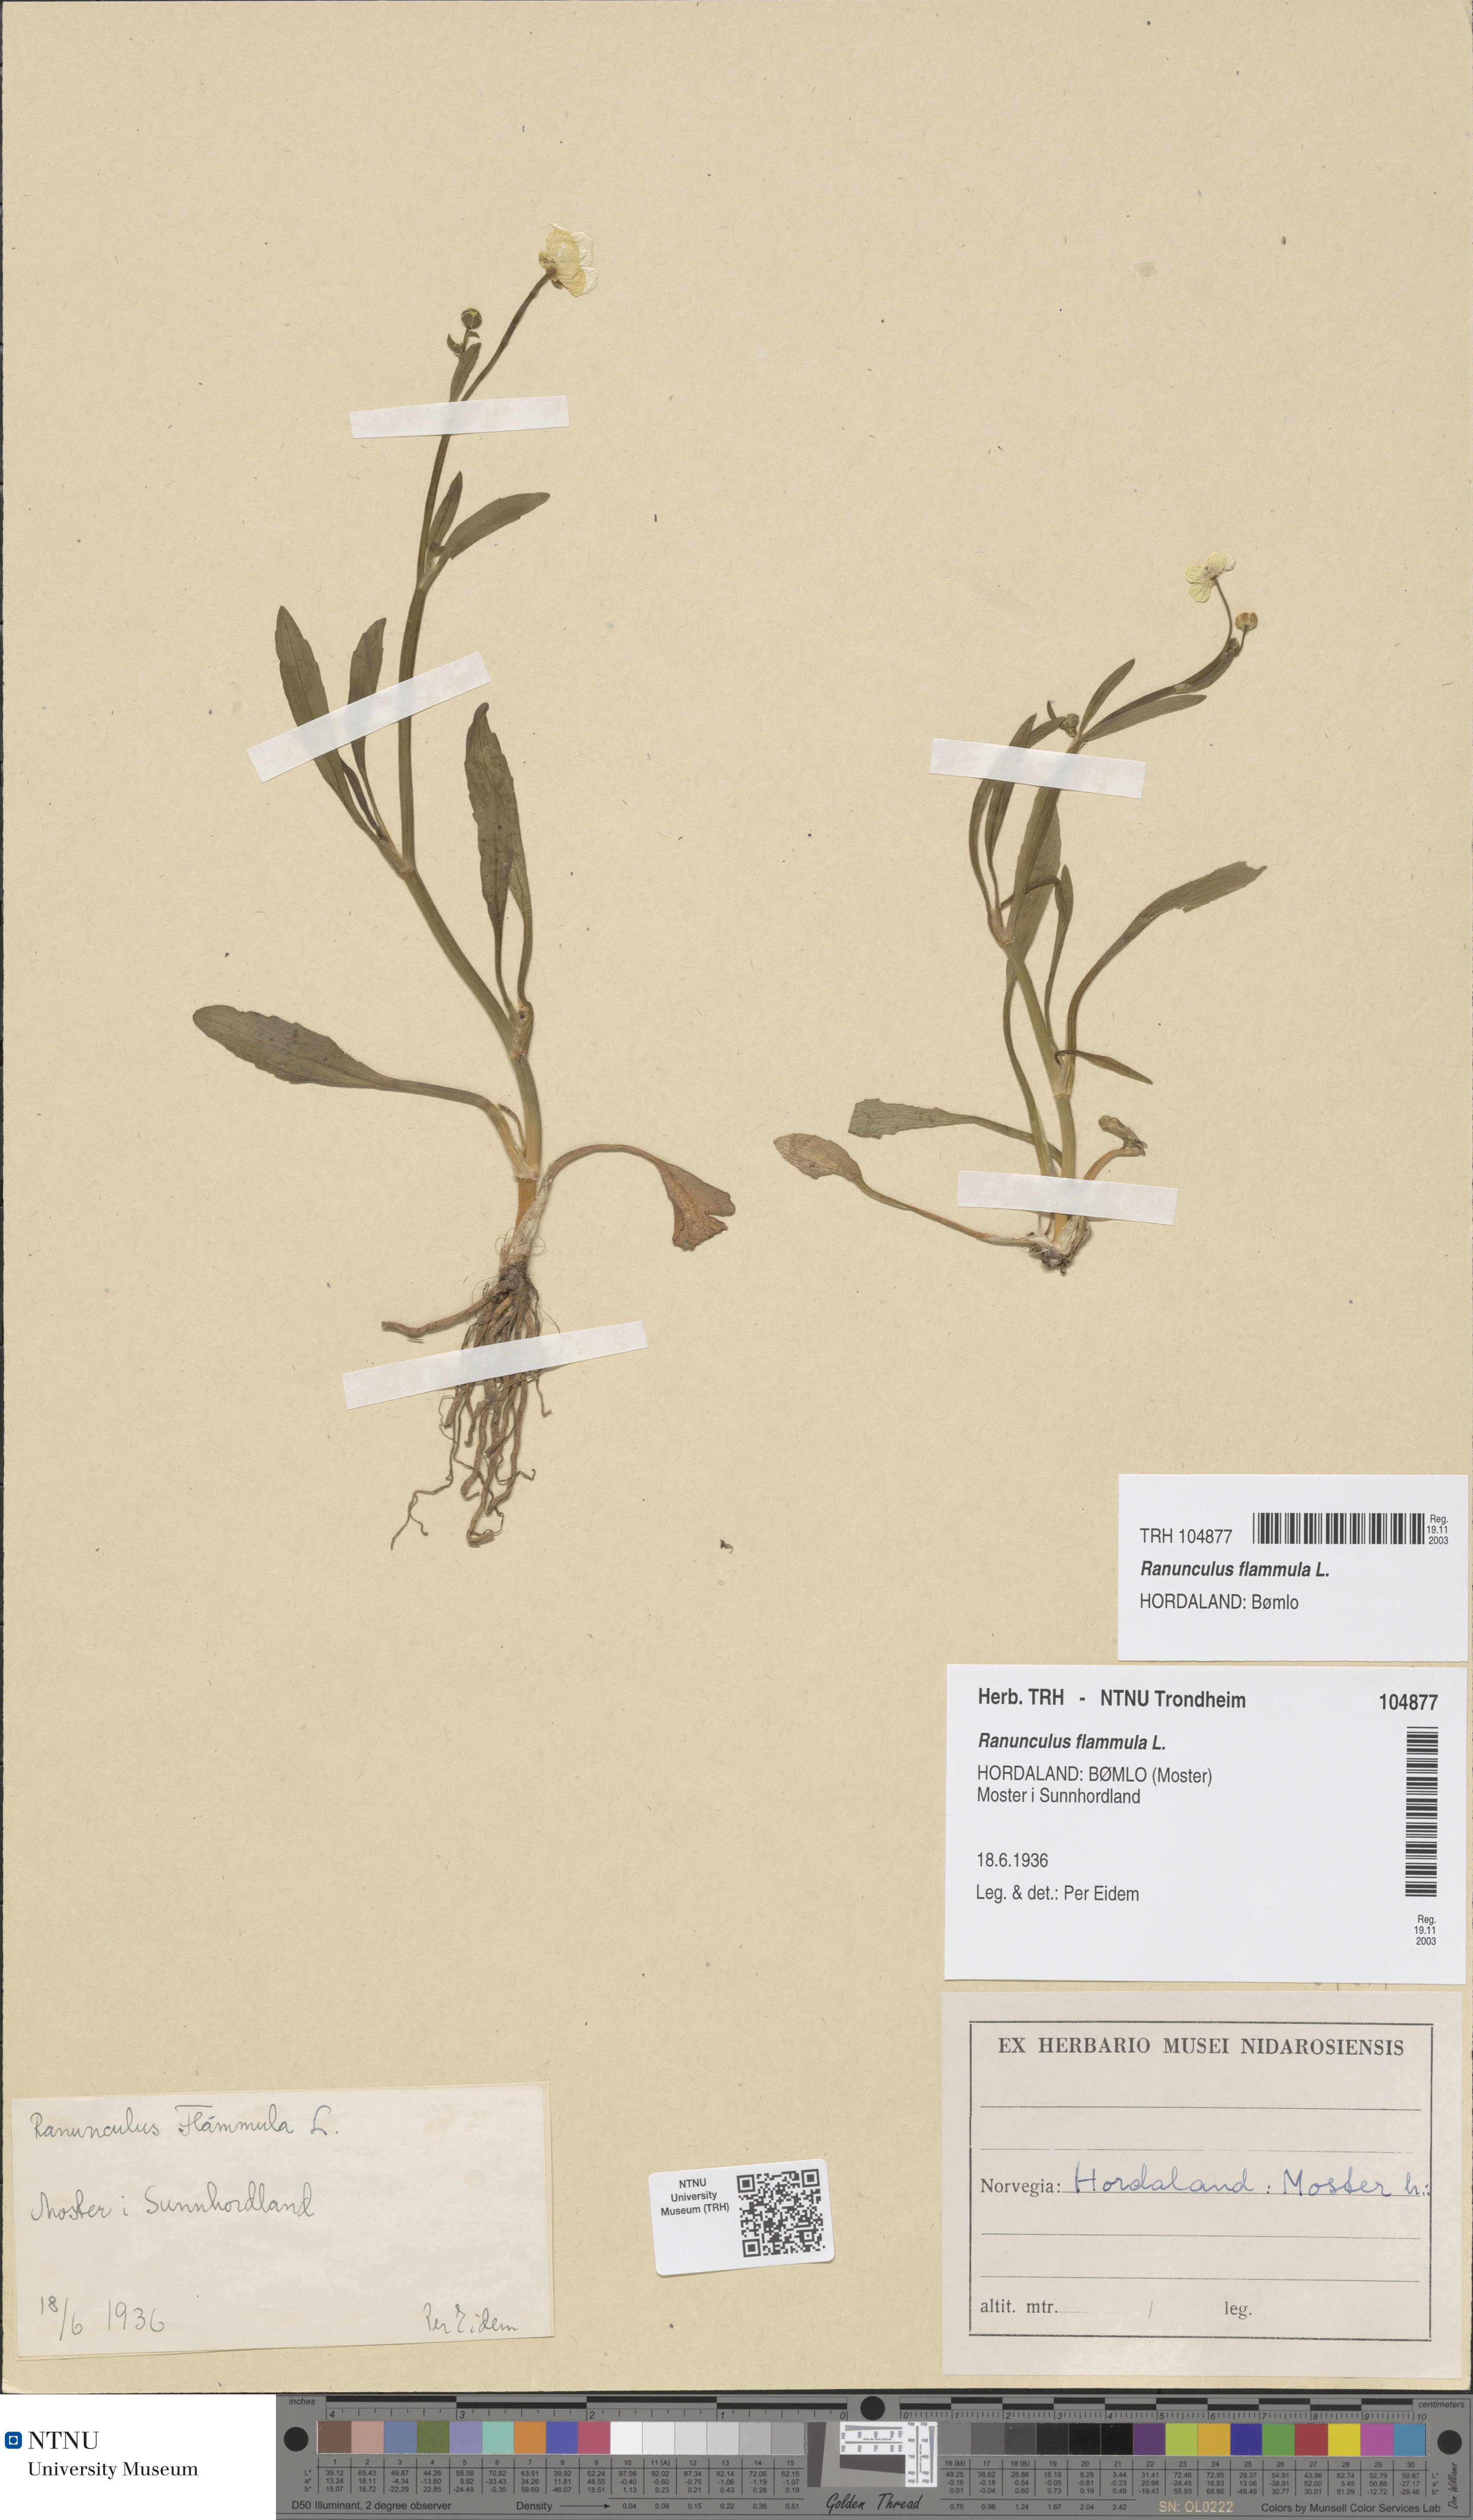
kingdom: Plantae
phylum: Tracheophyta
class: Magnoliopsida
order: Ranunculales
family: Ranunculaceae
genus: Ranunculus
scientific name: Ranunculus flammula
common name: Lesser spearwort
